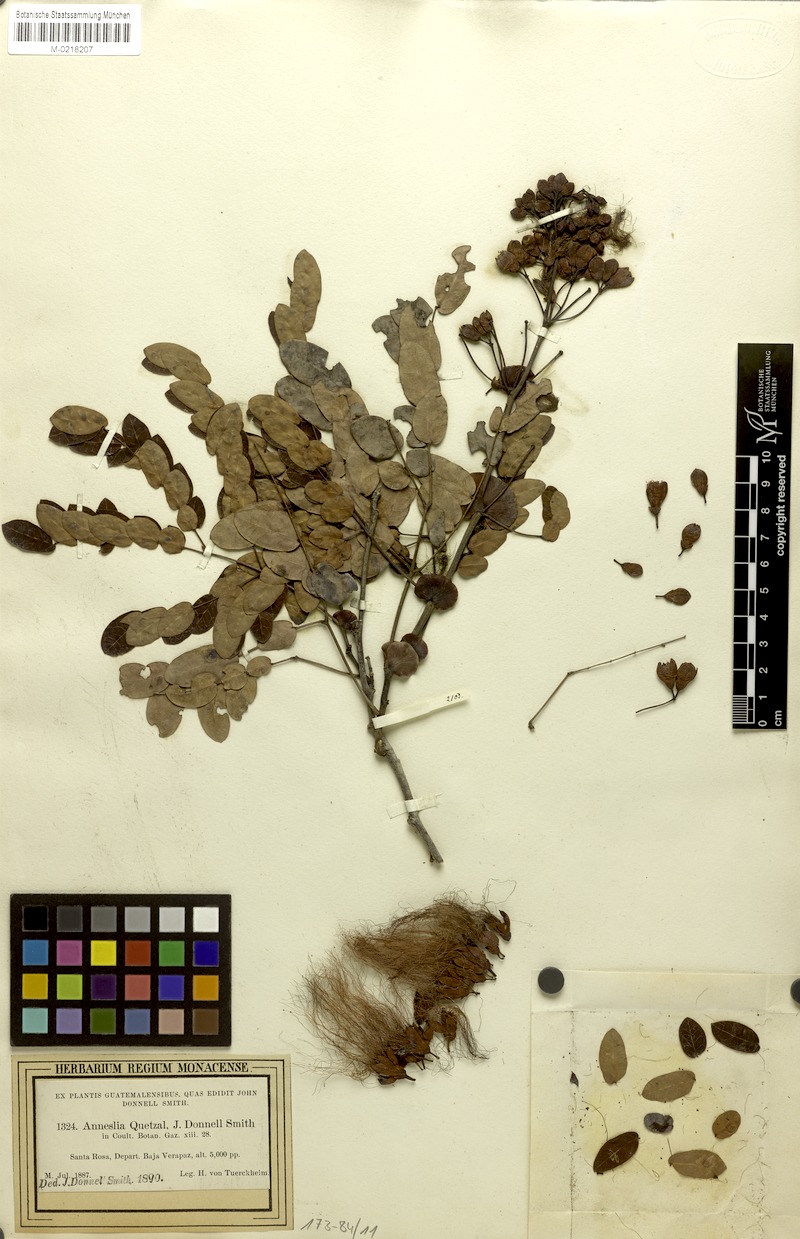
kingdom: Plantae
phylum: Tracheophyta
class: Magnoliopsida
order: Fabales
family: Fabaceae
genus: Calliandra
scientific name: Calliandra quetzal
